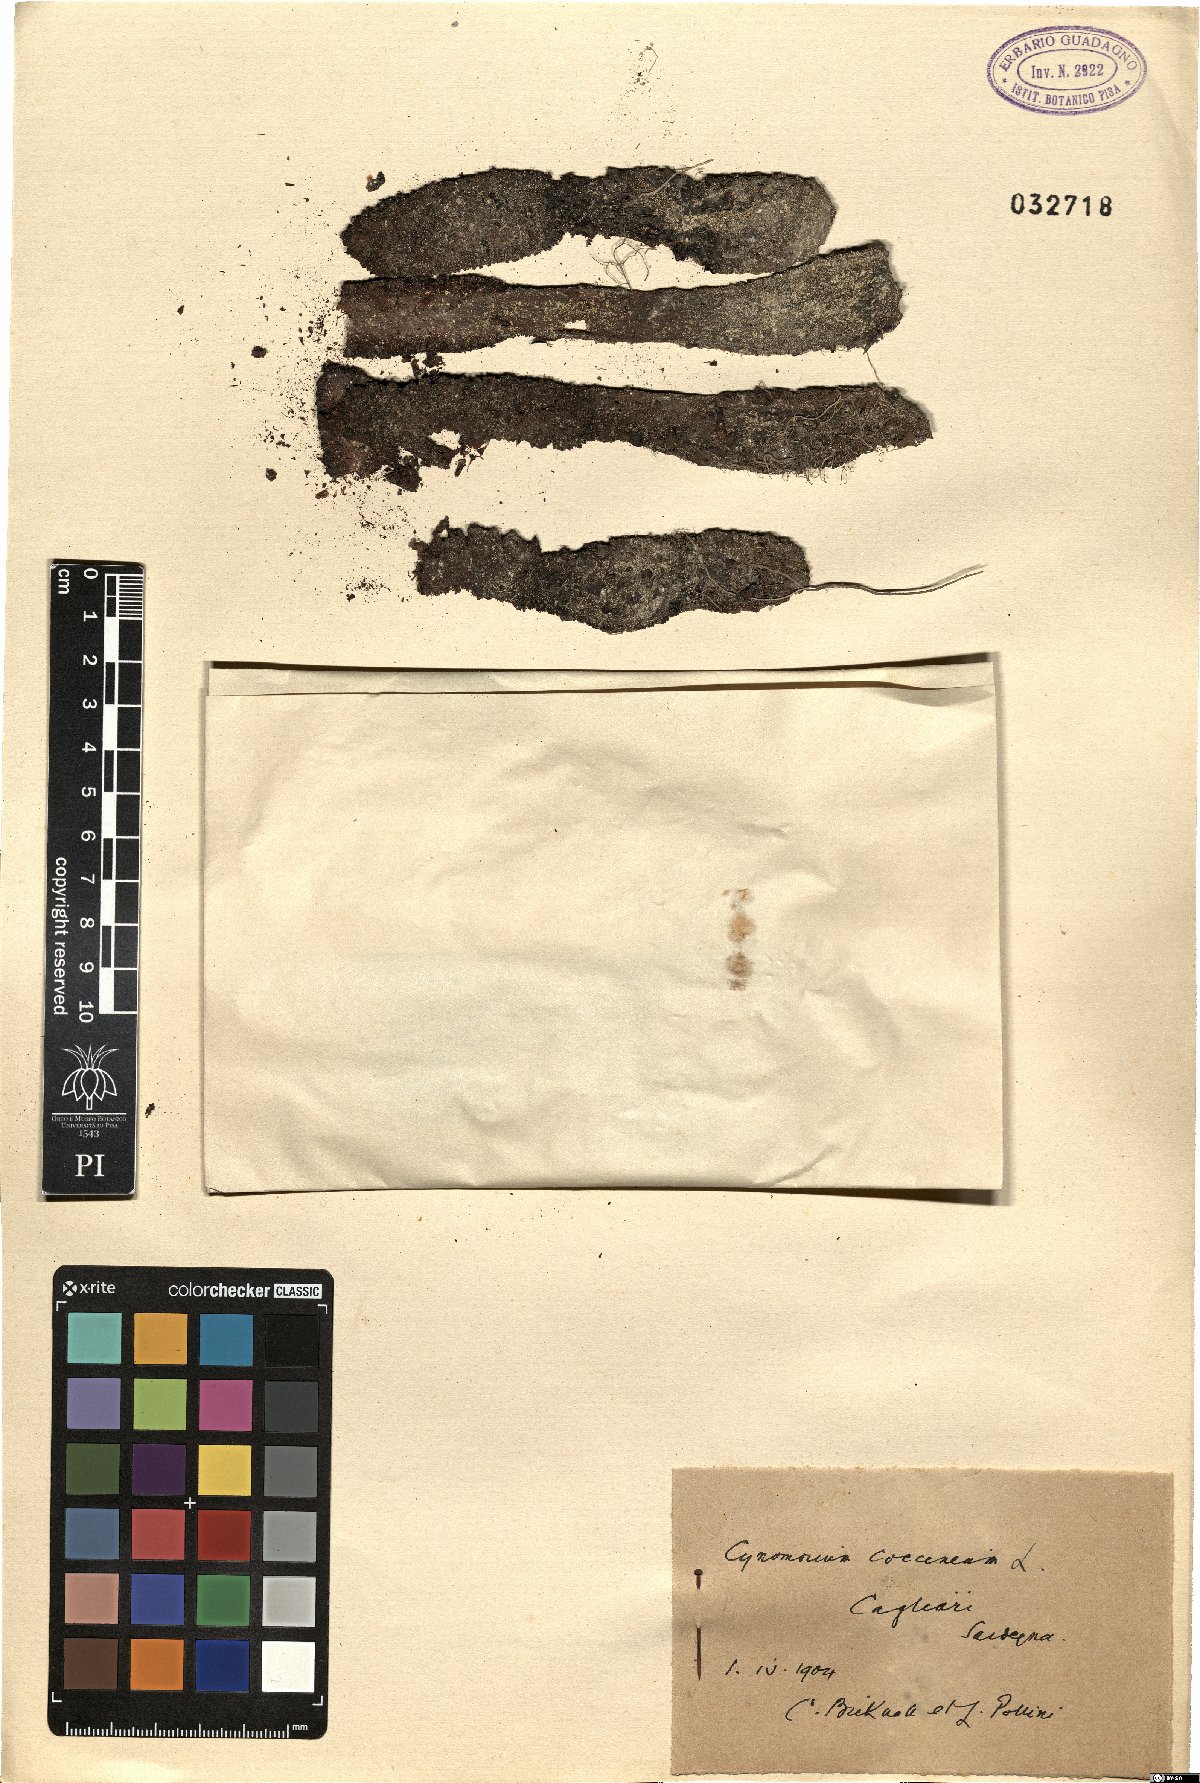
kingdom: Plantae
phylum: Tracheophyta
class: Magnoliopsida
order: Saxifragales
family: Cynomoriaceae
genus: Cynomorium
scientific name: Cynomorium coccineum
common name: Maltese-mushroom
